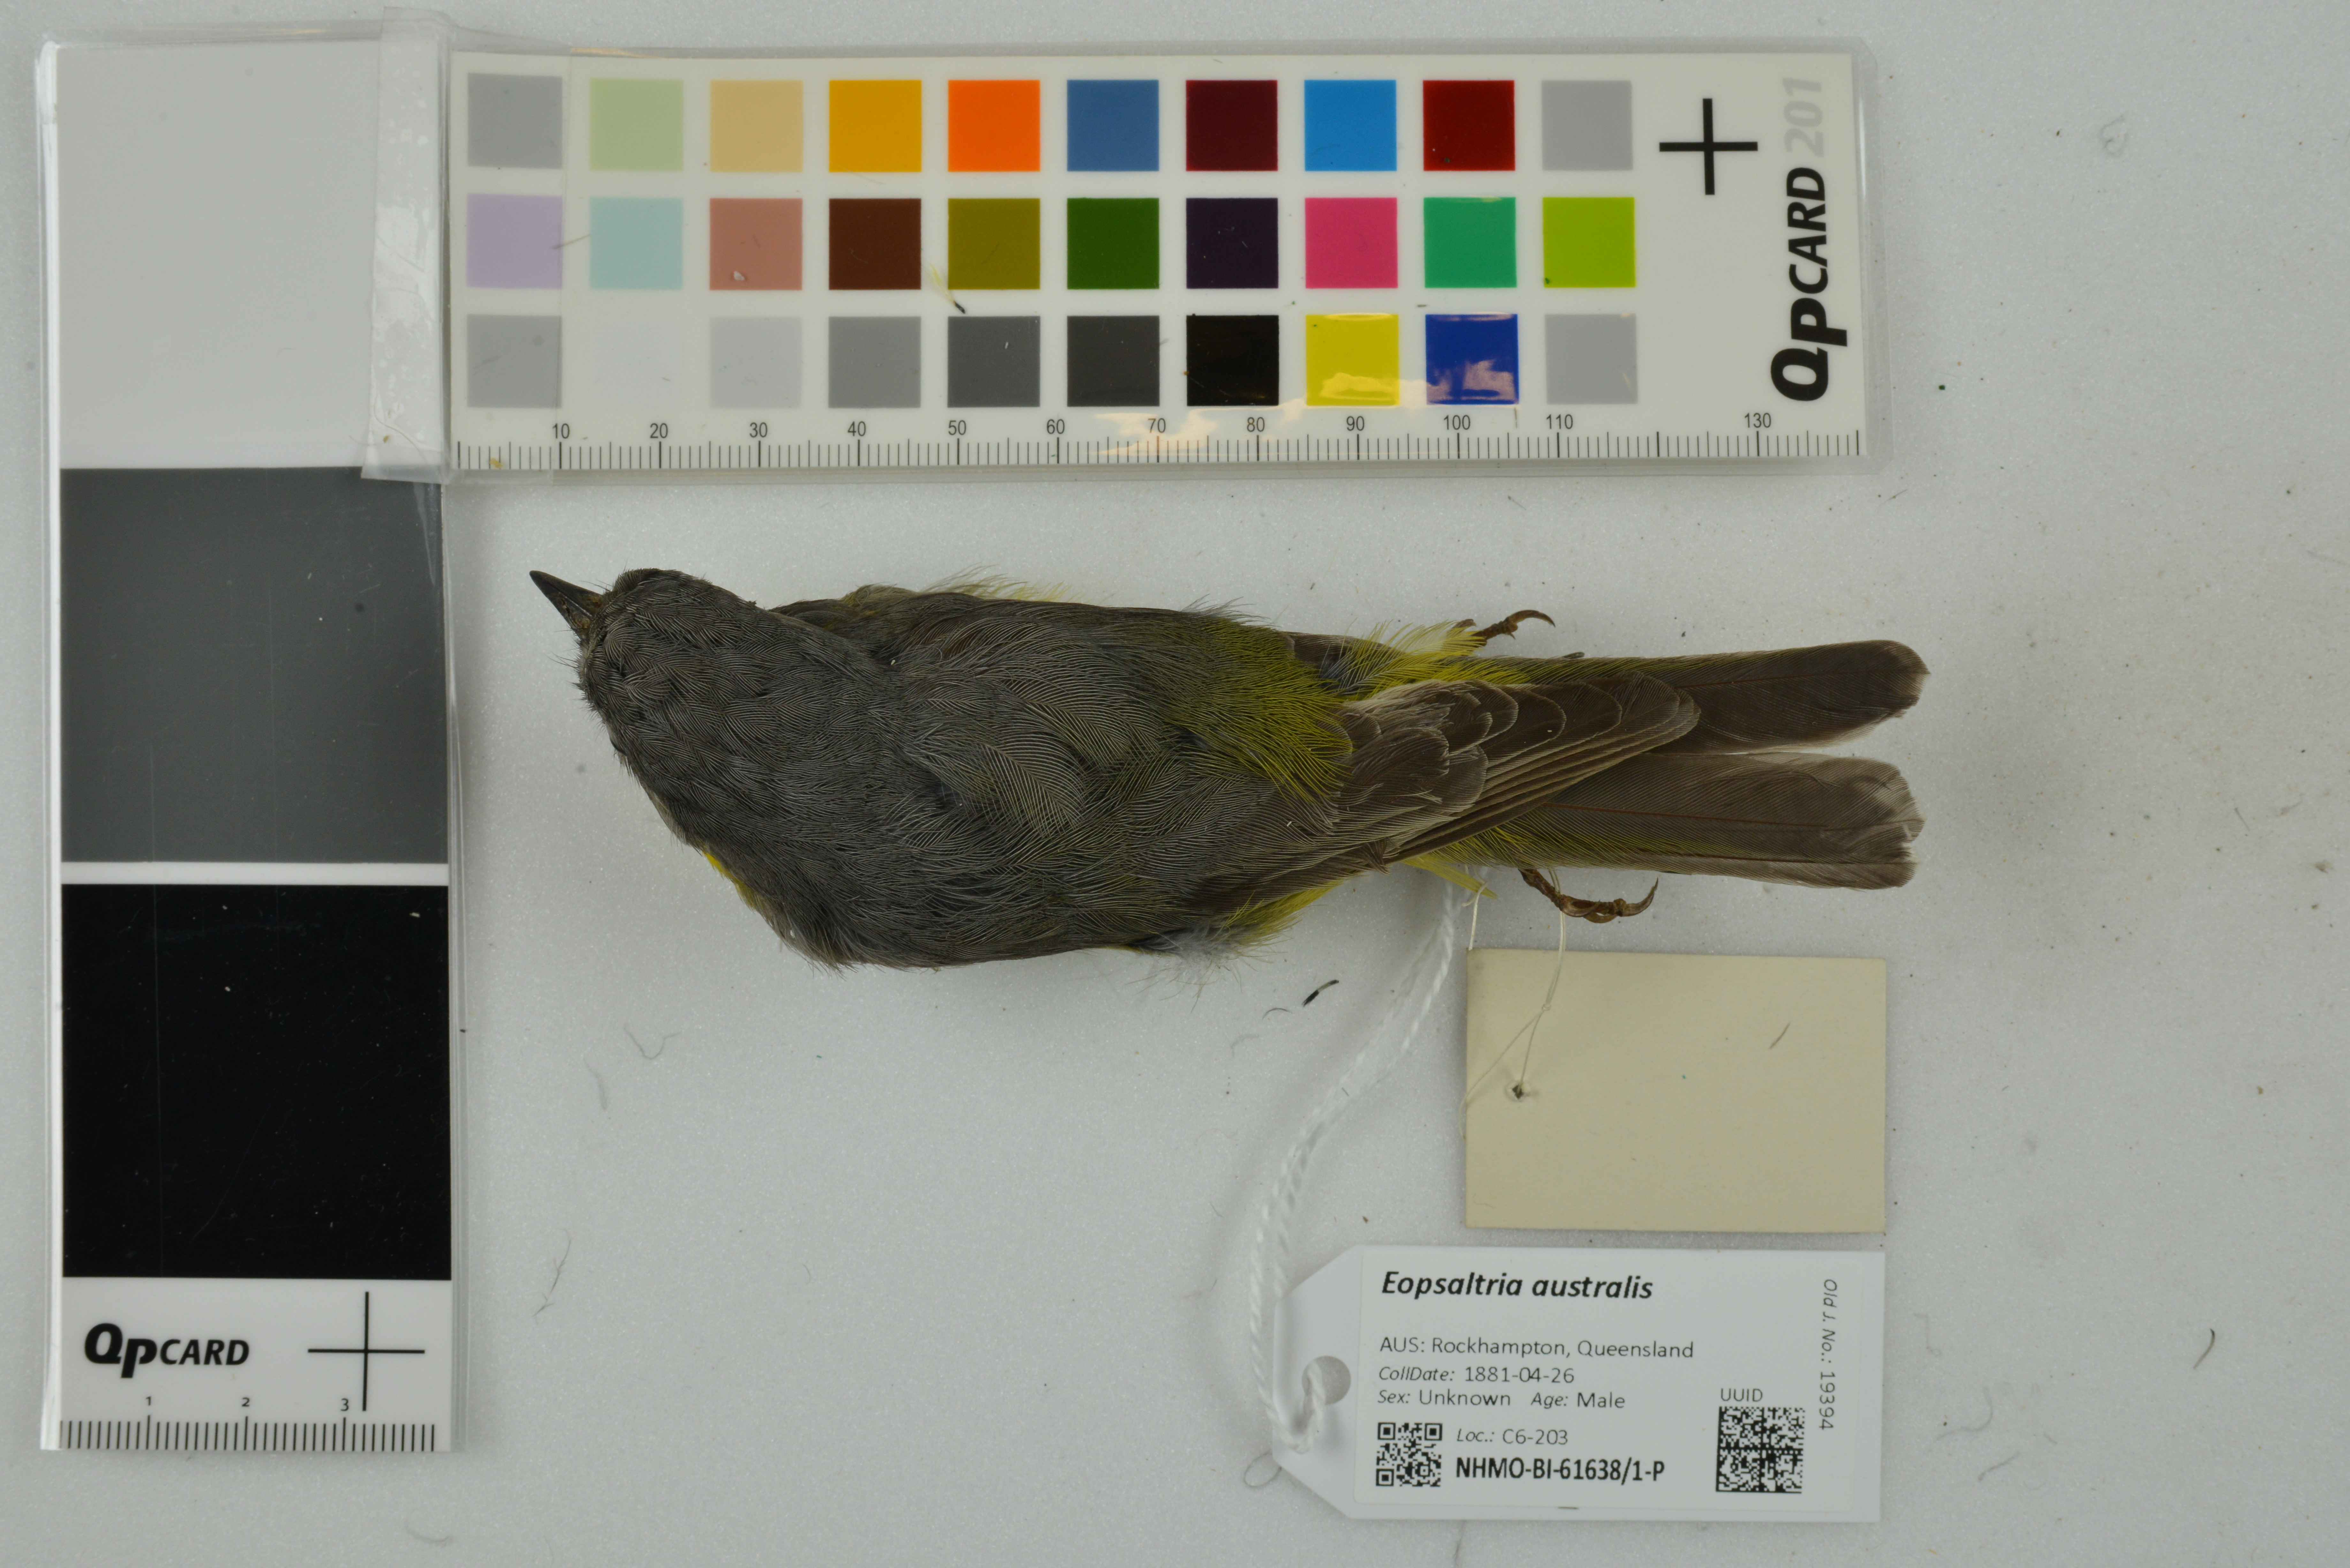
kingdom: Animalia
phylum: Chordata
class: Aves
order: Passeriformes
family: Petroicidae
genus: Eopsaltria
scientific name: Eopsaltria australis
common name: Eastern yellow robin
